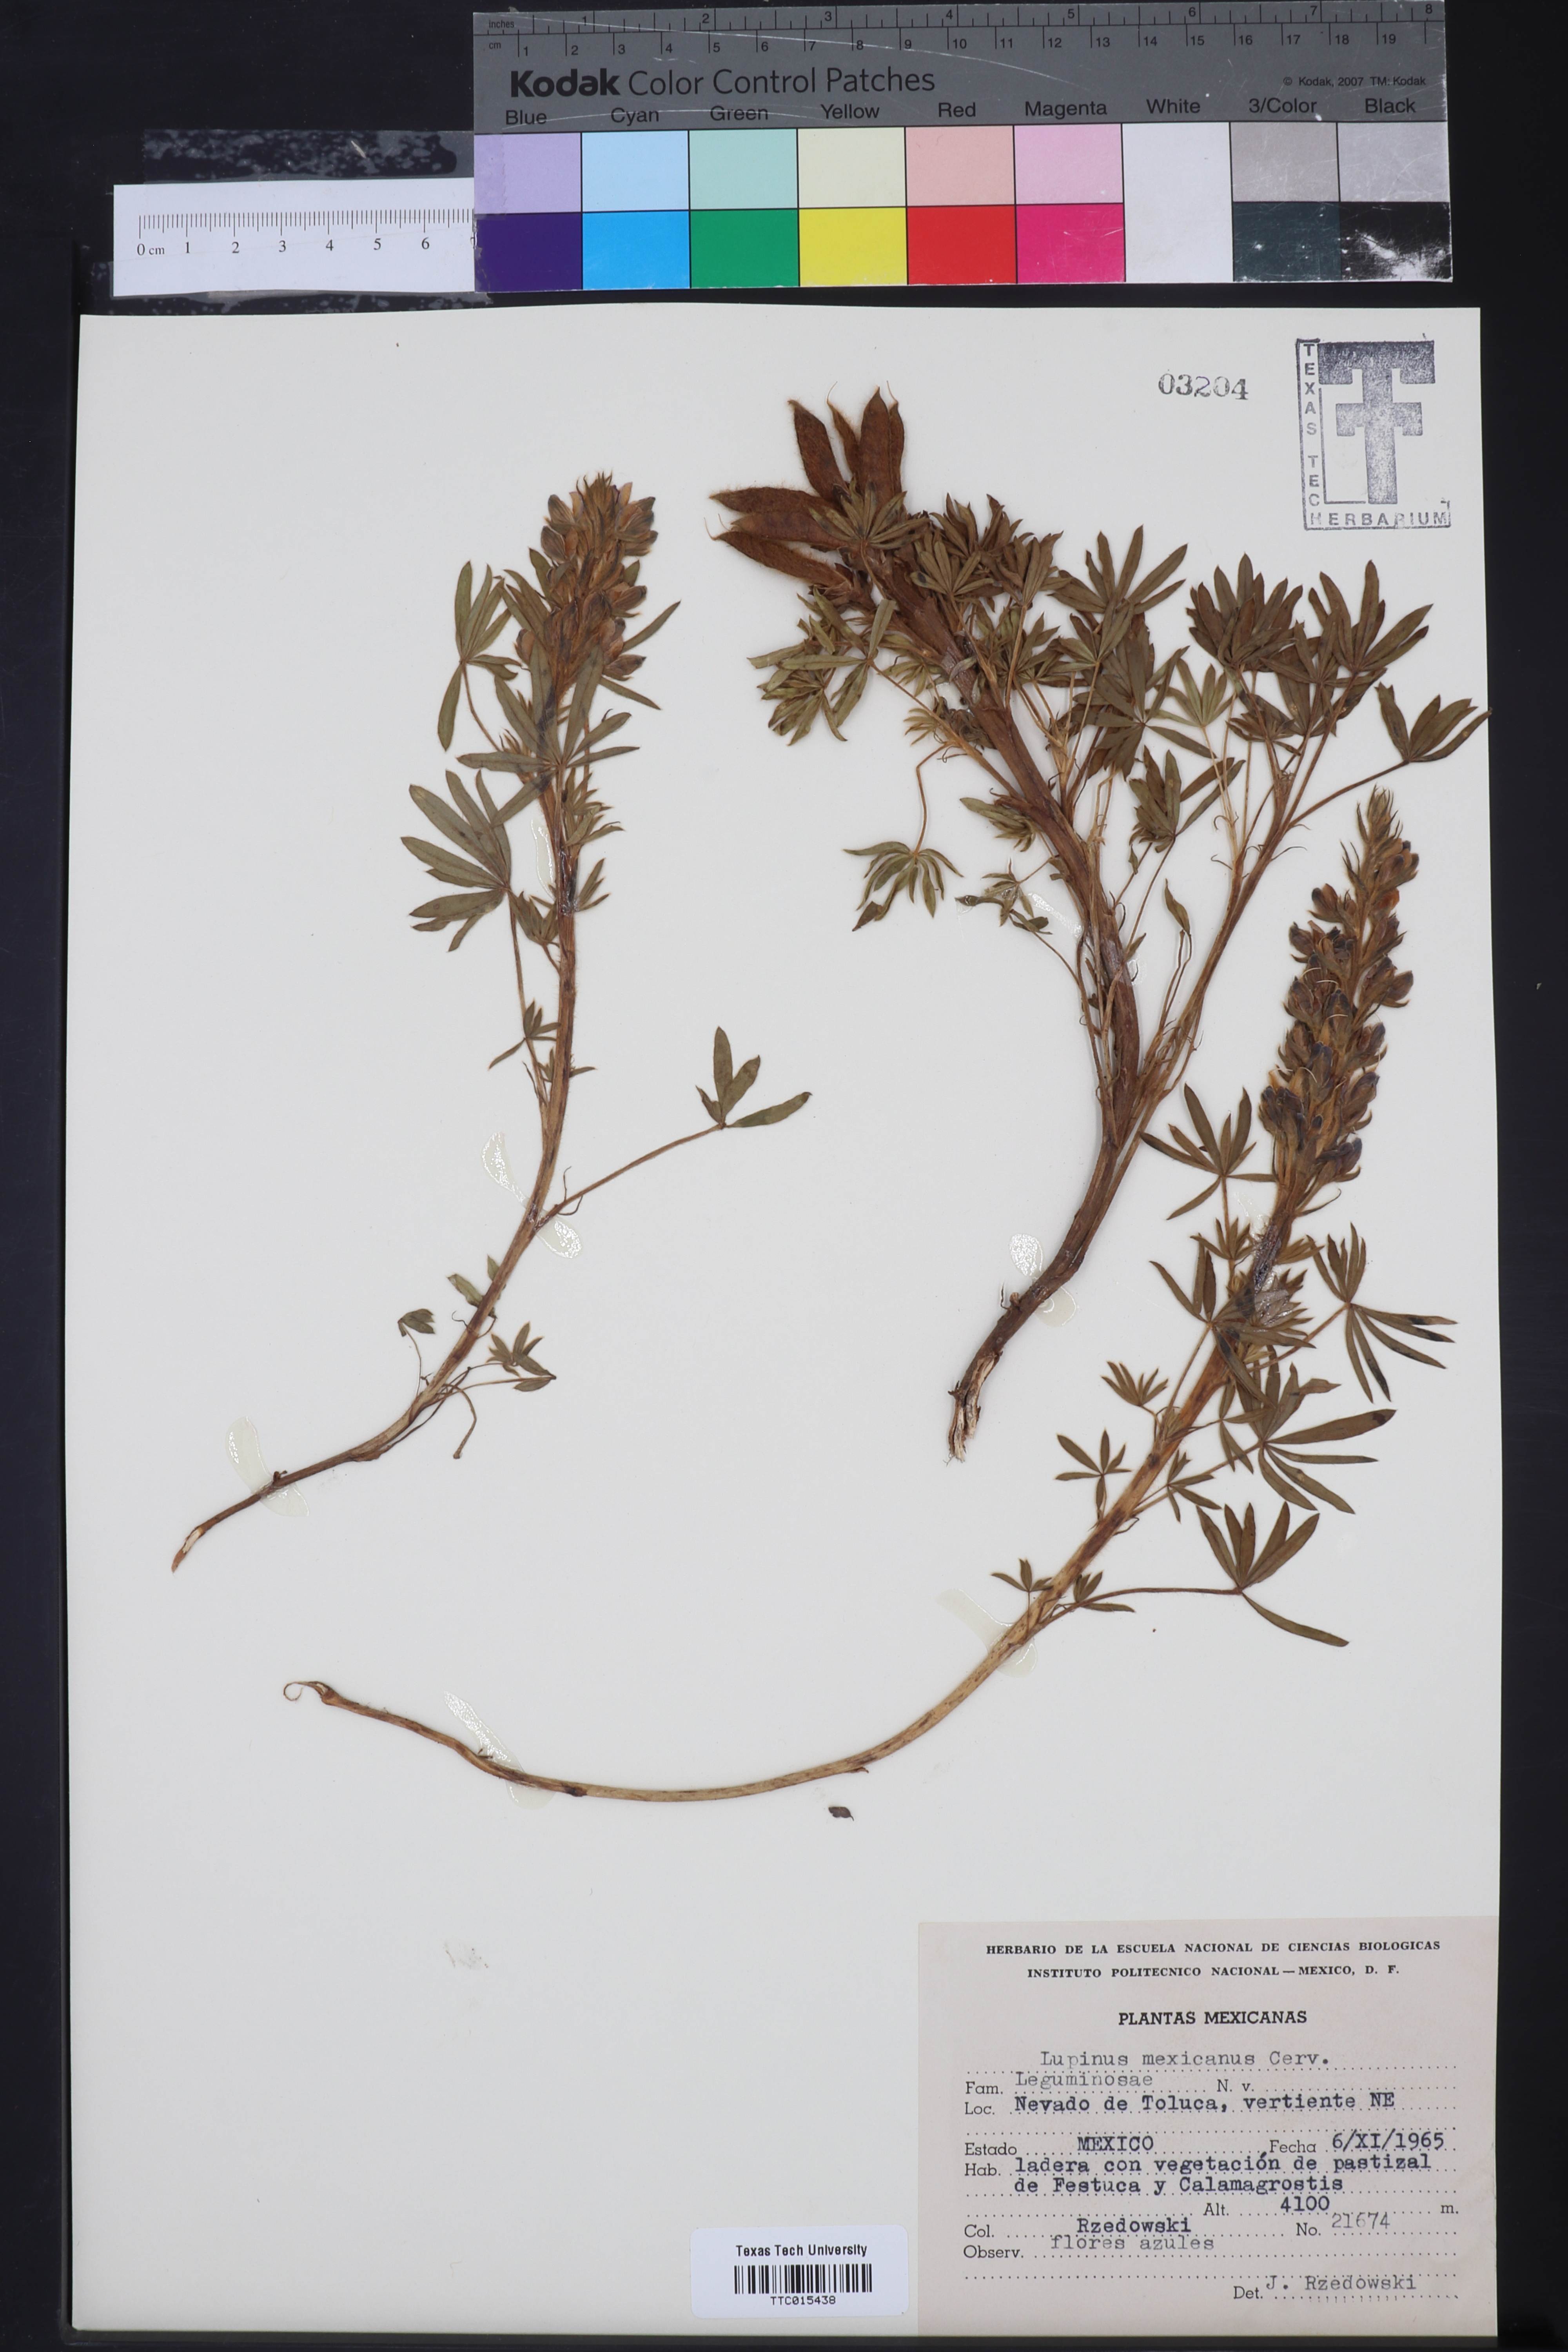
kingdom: Plantae
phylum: Tracheophyta
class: Magnoliopsida
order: Fabales
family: Fabaceae
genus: Lupinus
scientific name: Lupinus mexicanus
